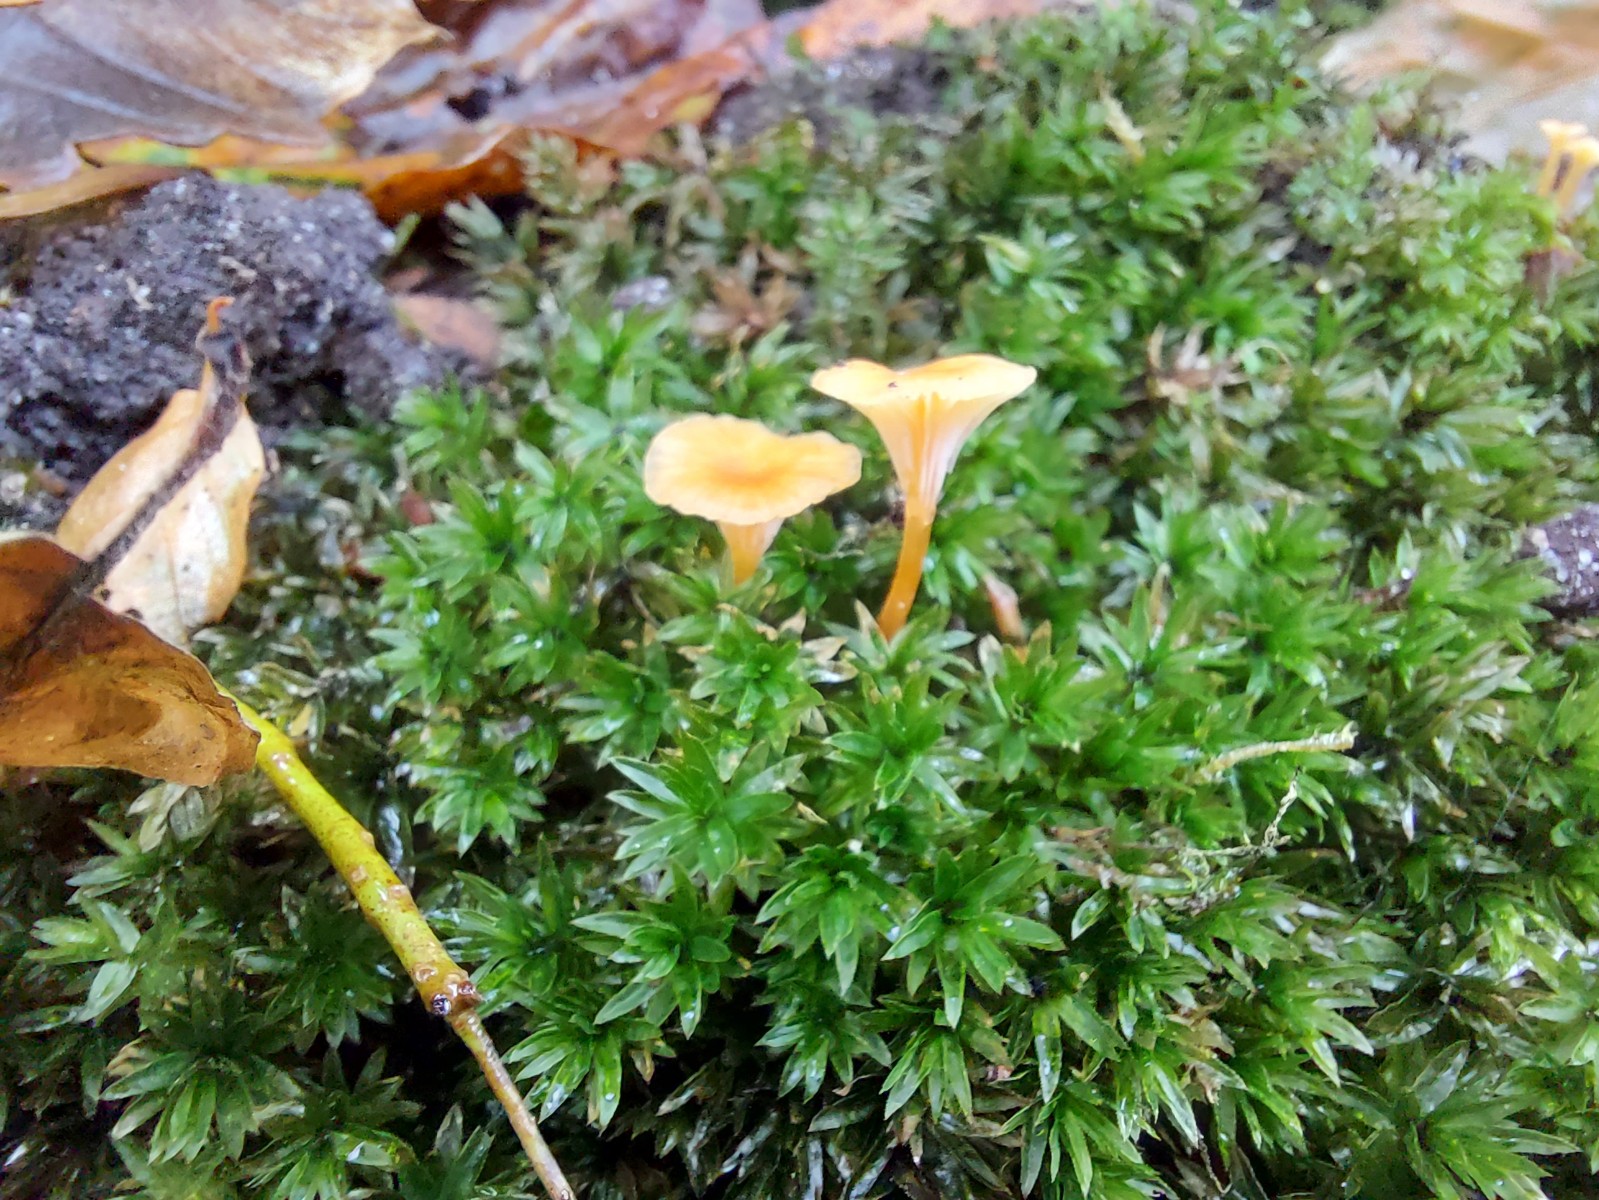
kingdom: Fungi
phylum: Basidiomycota
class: Agaricomycetes
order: Hymenochaetales
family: Rickenellaceae
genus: Rickenella
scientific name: Rickenella fibula
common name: orange mosnavlehat
